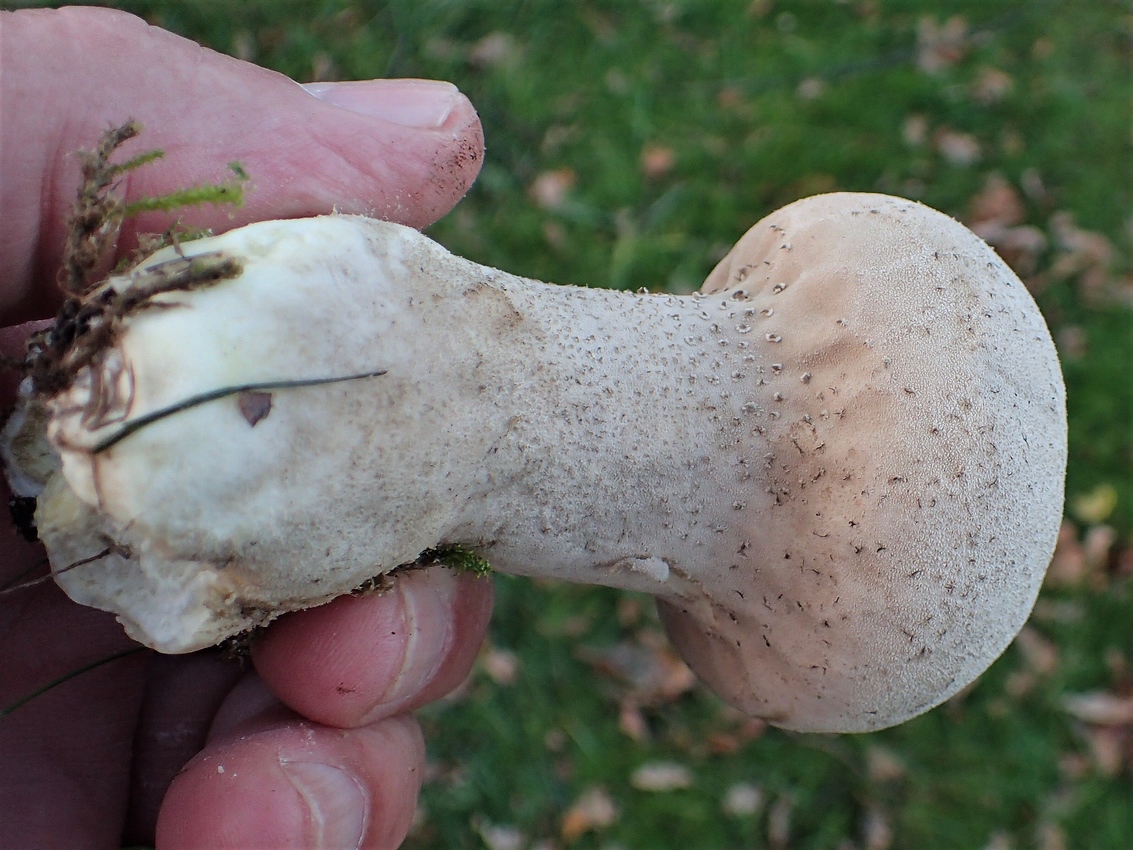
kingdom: Fungi
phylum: Basidiomycota
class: Agaricomycetes
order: Agaricales
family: Lycoperdaceae
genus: Lycoperdon
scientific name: Lycoperdon excipuliforme
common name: højstokket støvbold
